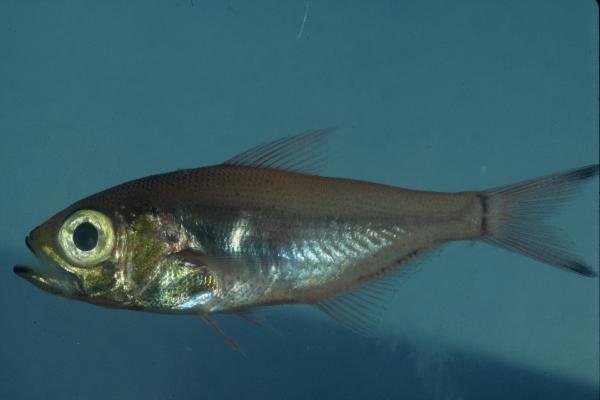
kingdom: Animalia
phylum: Chordata
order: Perciformes
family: Pempheridae
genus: Parapriacanthus
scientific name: Parapriacanthus ransonneti
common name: Pigmy sweeper
